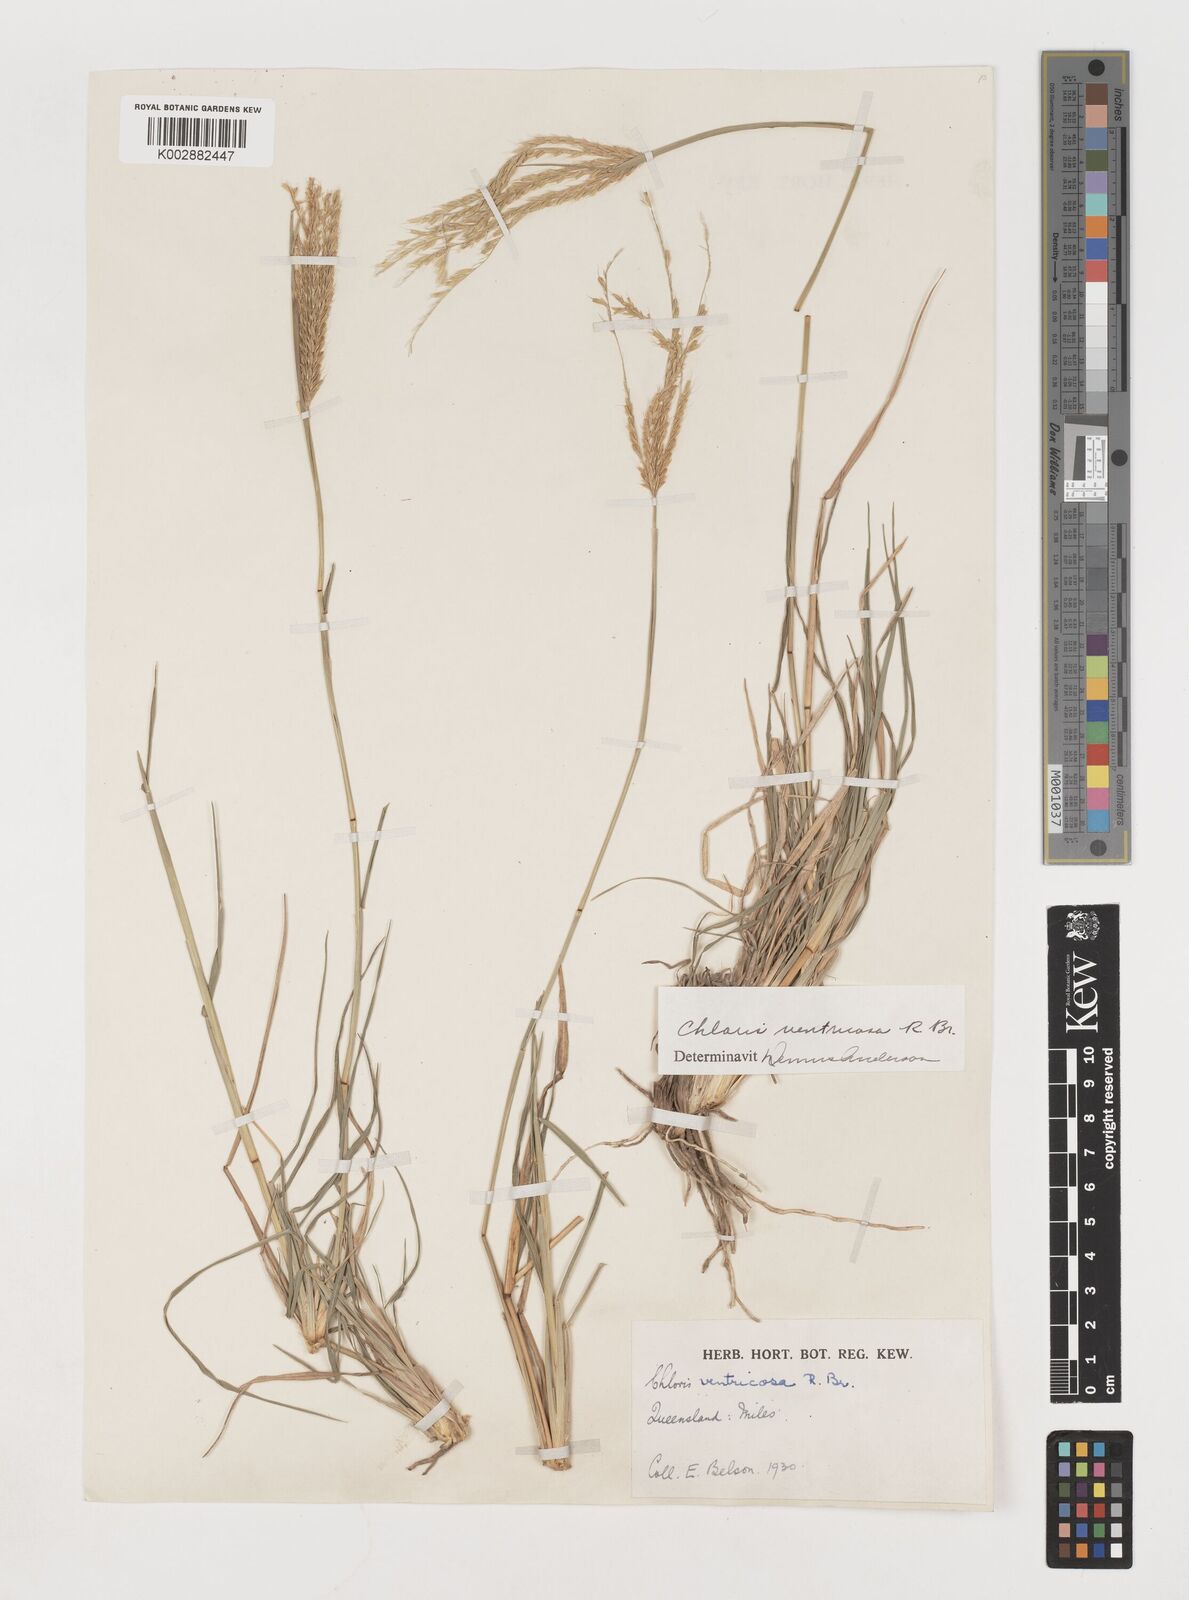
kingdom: Plantae
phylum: Tracheophyta
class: Liliopsida
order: Poales
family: Poaceae
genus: Chloris
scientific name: Chloris ventricosa
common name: Australian windmill grass
